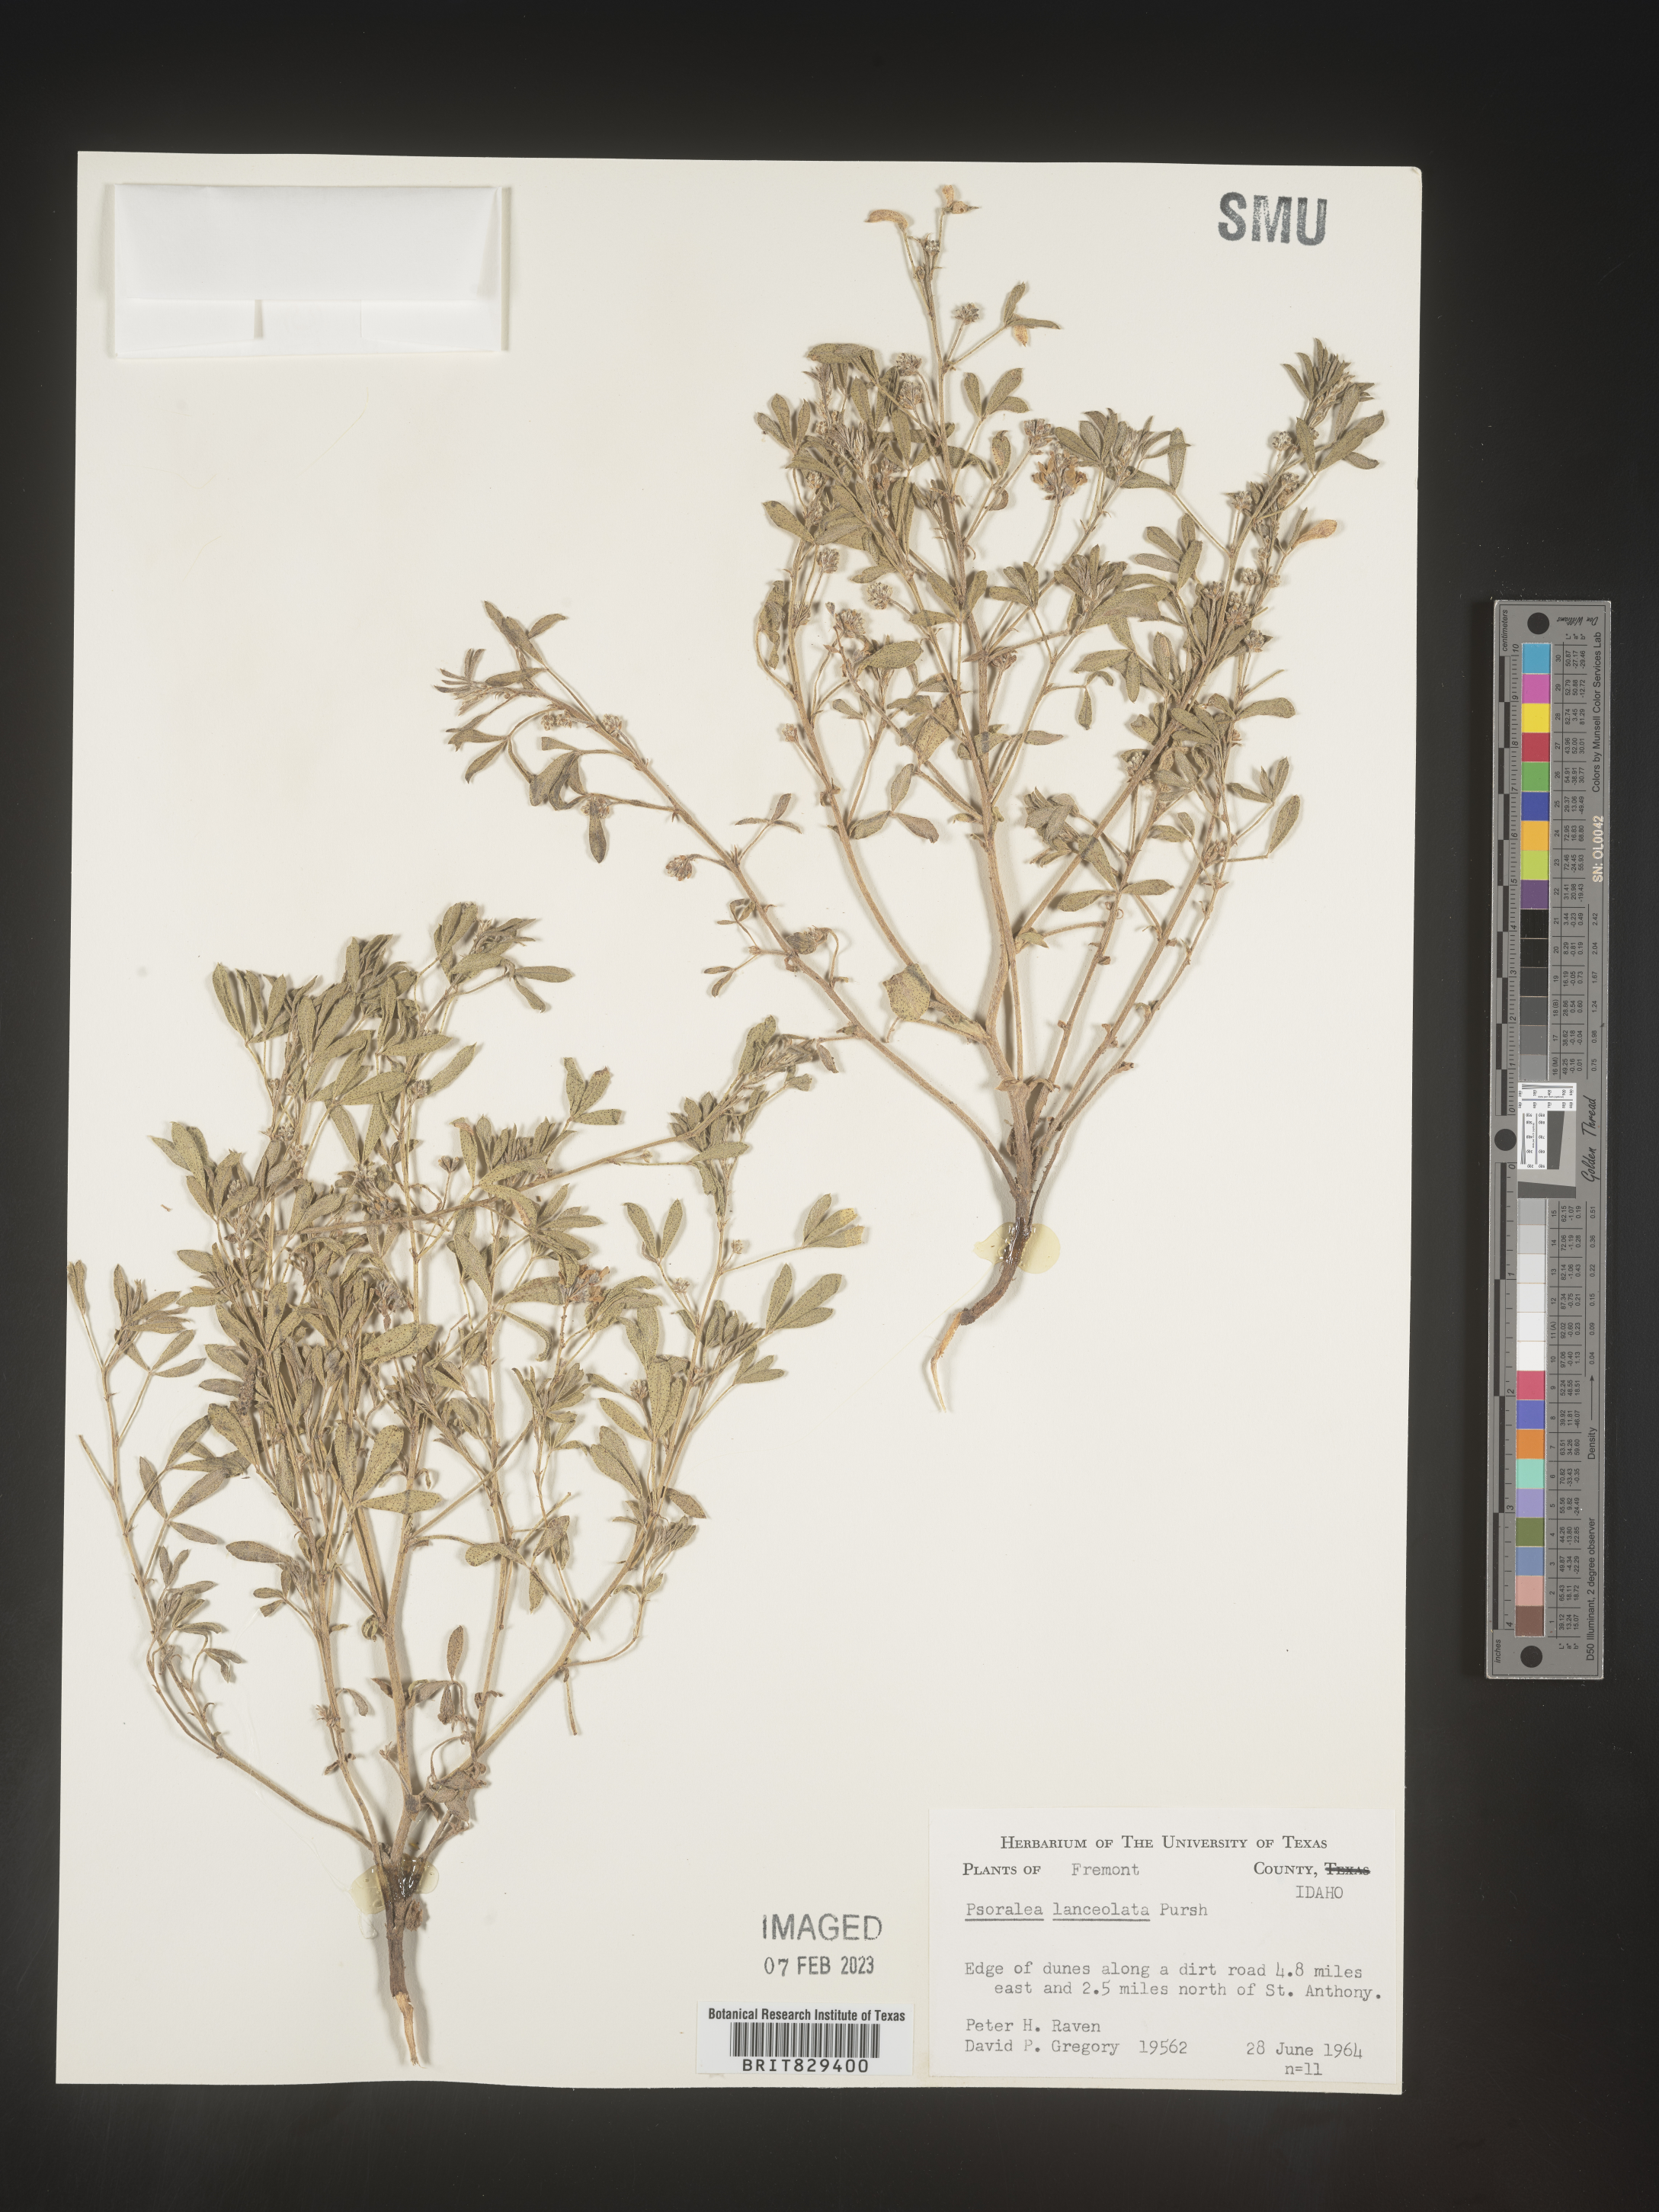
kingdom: Plantae
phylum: Tracheophyta
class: Magnoliopsida
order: Fabales
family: Fabaceae
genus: Psoralea
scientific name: Psoralea
